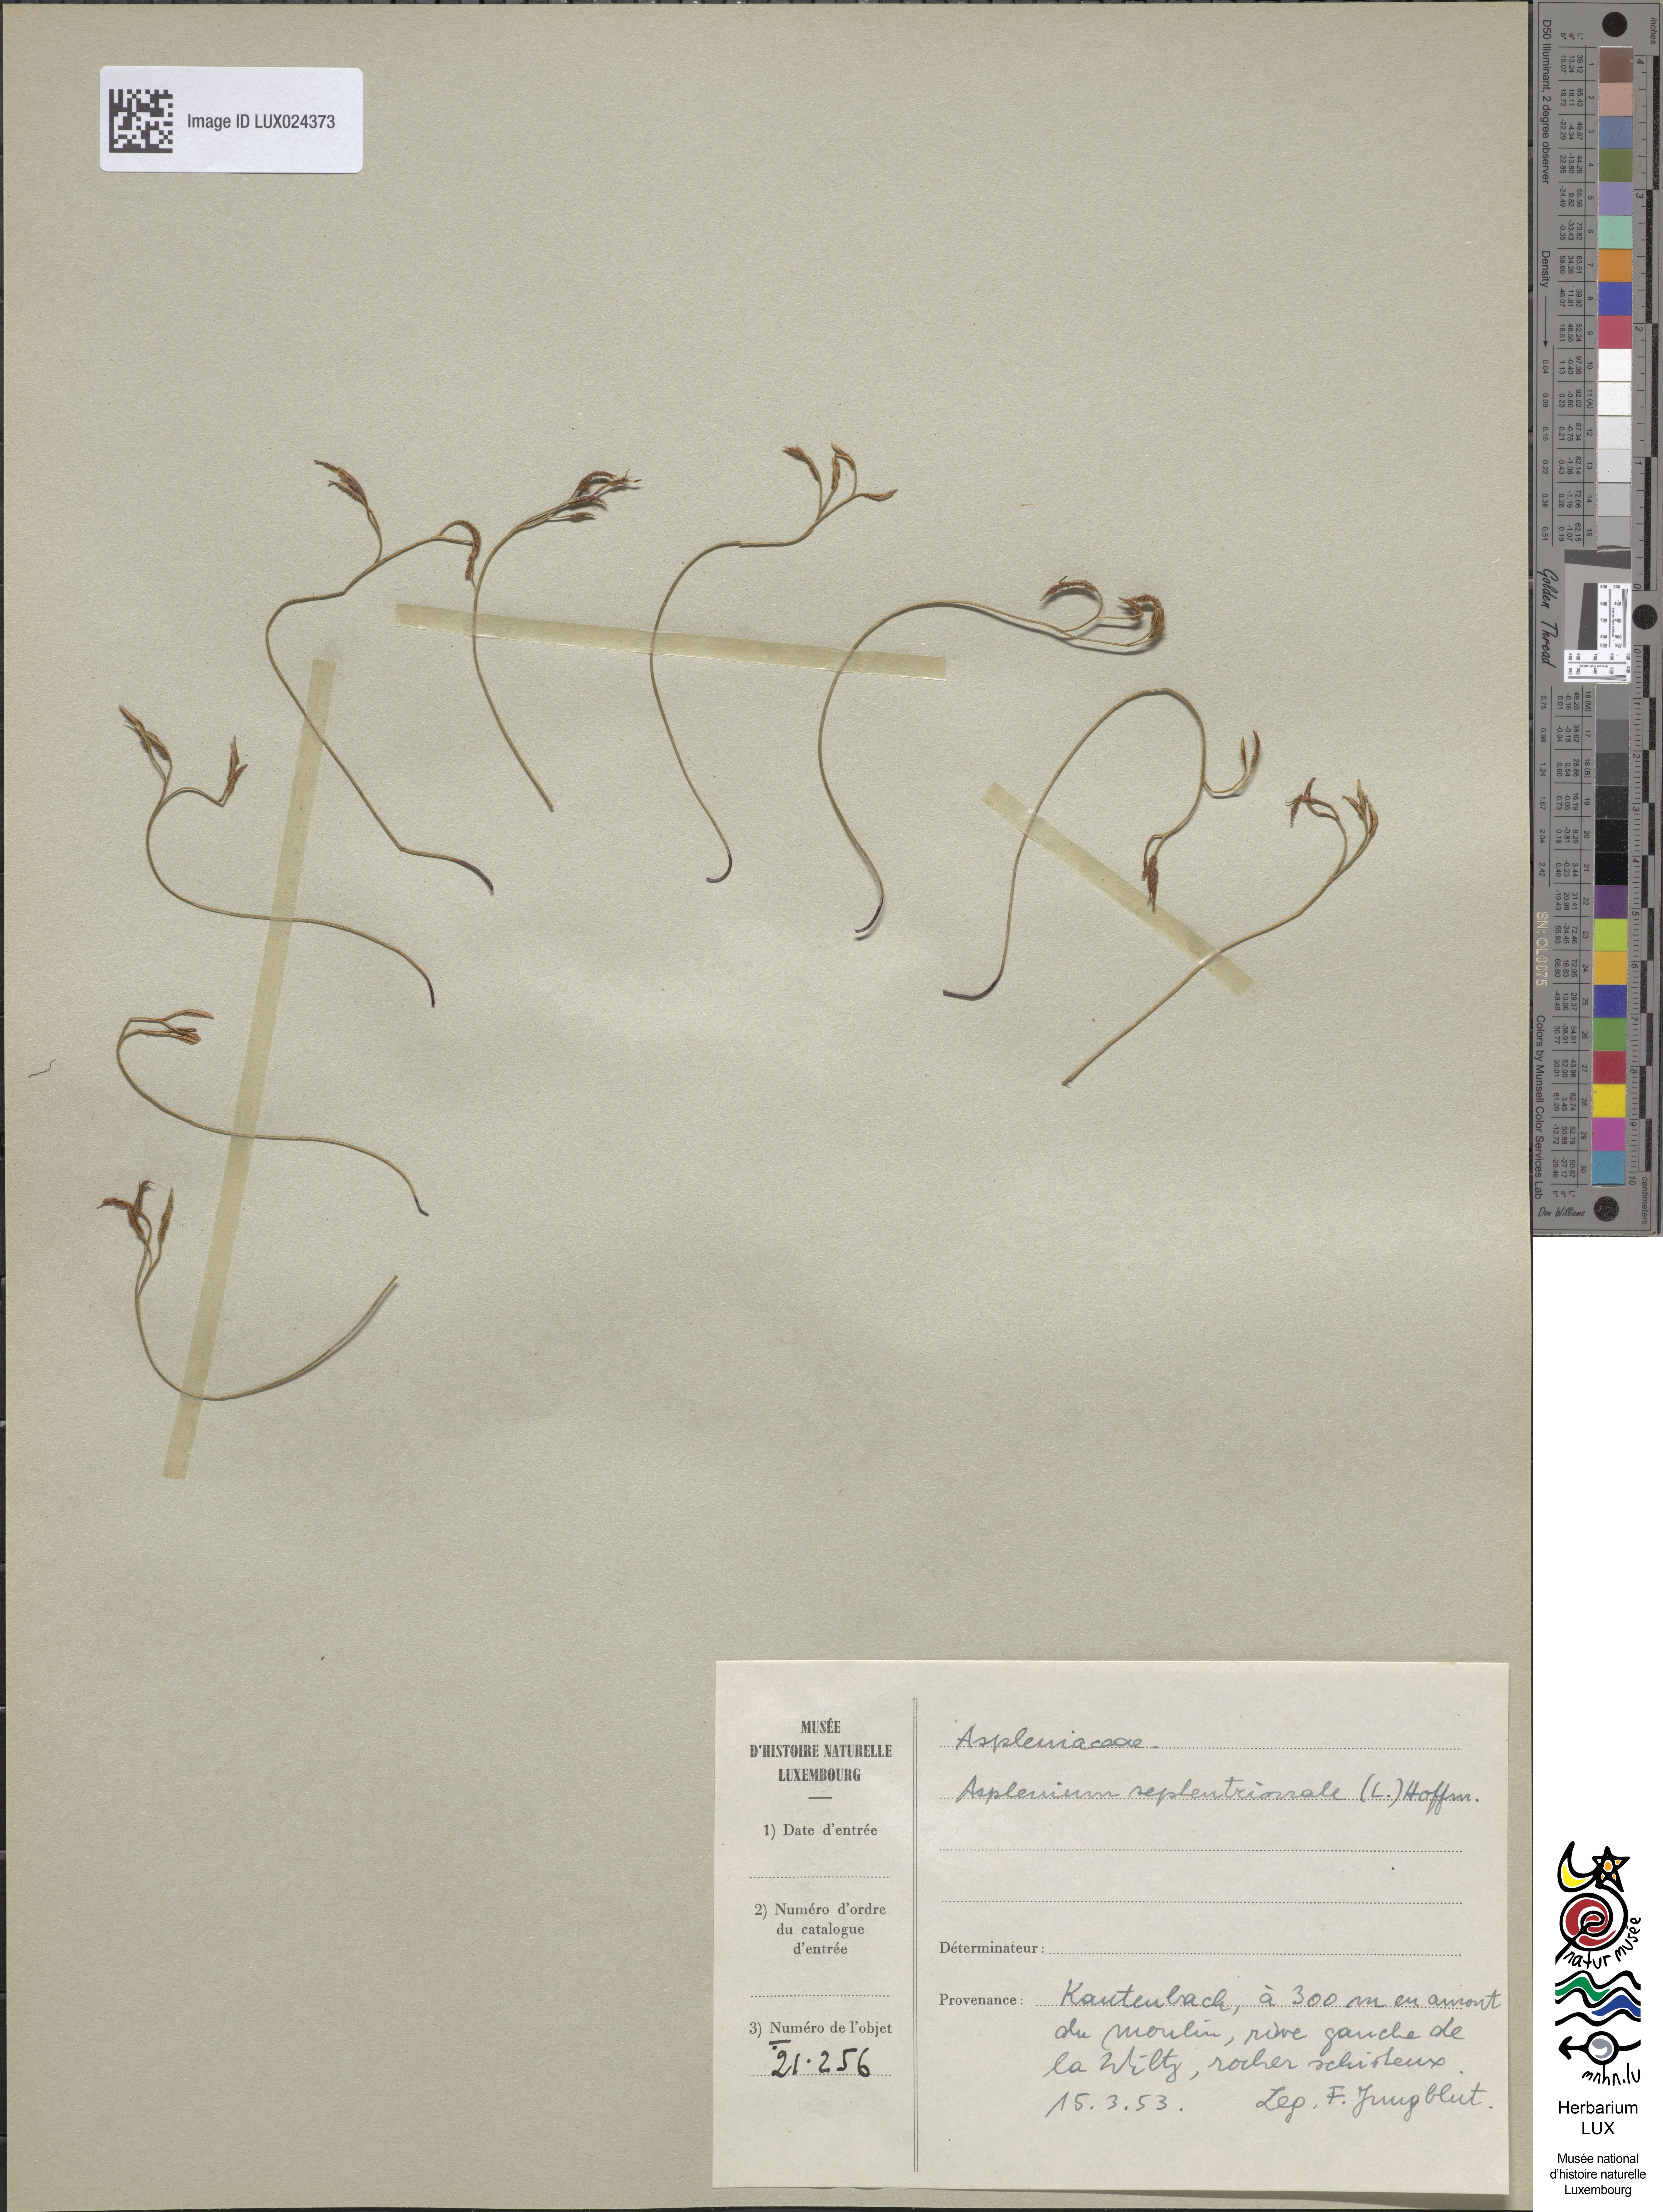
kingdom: Plantae
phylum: Tracheophyta
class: Polypodiopsida
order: Polypodiales
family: Aspleniaceae
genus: Asplenium
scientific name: Asplenium septentrionale
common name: Forked spleenwort
